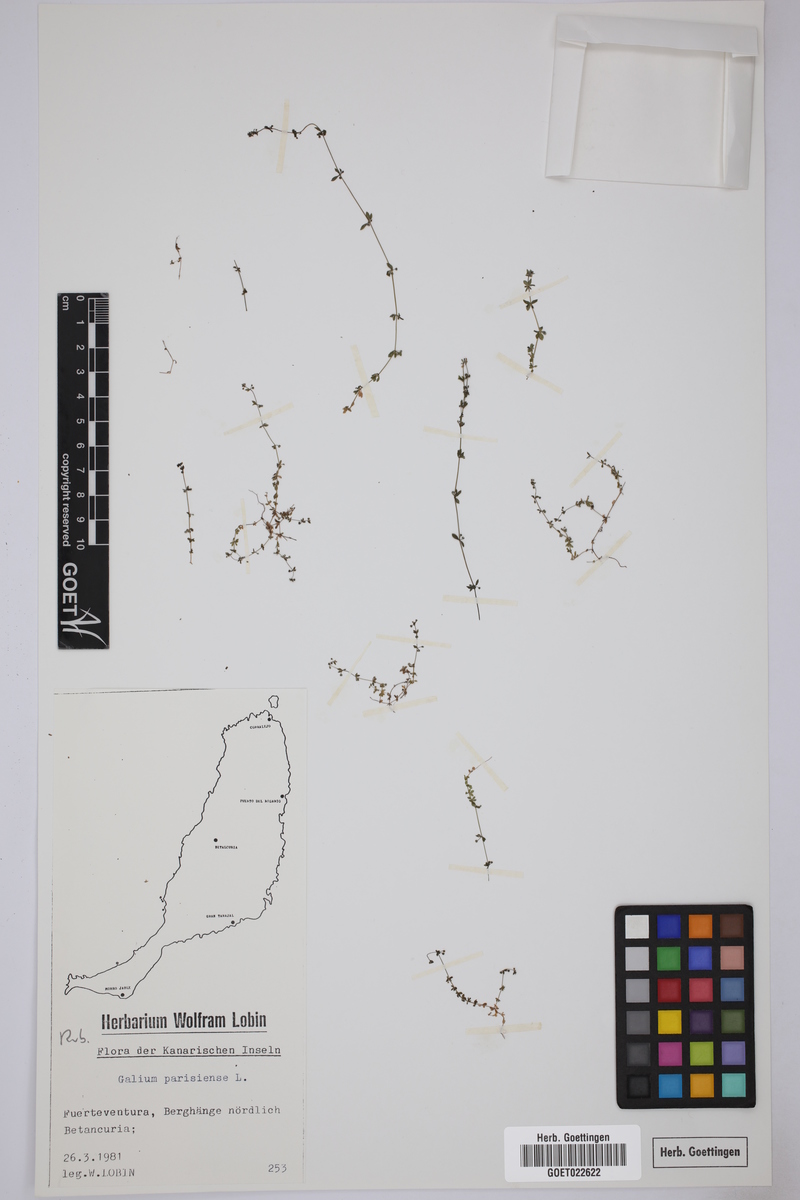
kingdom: Plantae
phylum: Tracheophyta
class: Magnoliopsida
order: Gentianales
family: Rubiaceae
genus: Galium
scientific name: Galium parisiense
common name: Wall bedstraw
